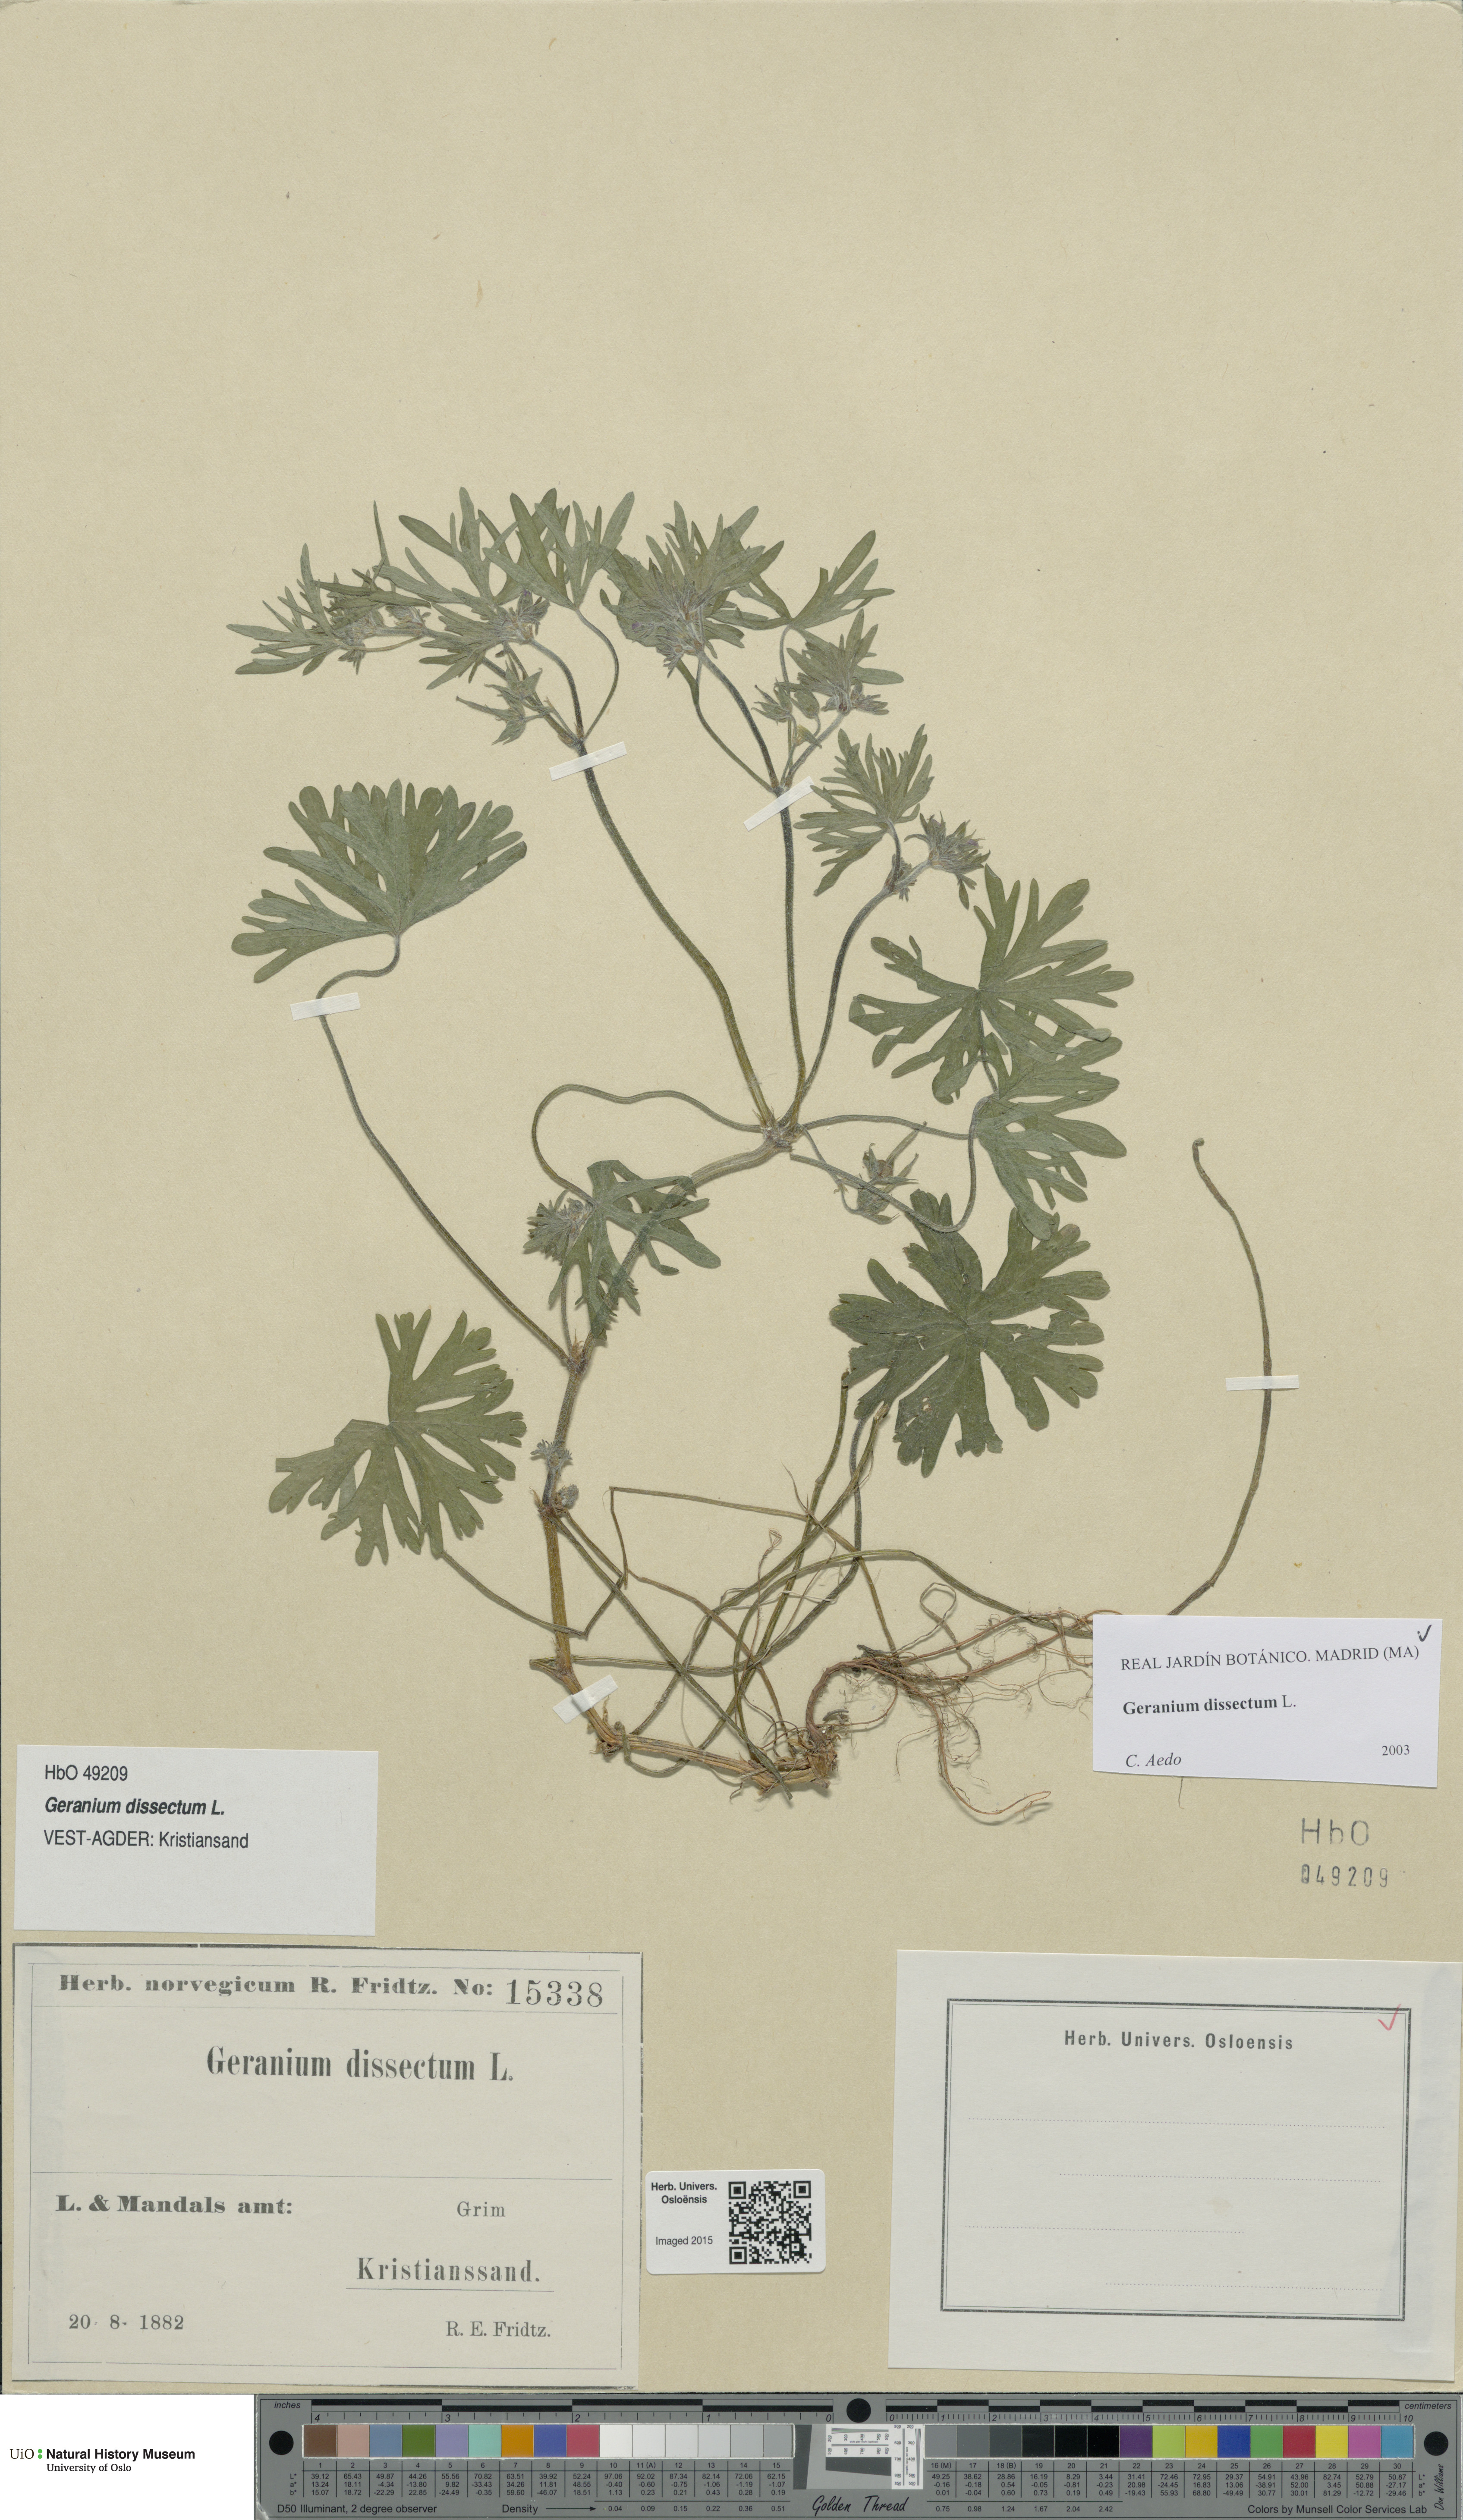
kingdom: Plantae
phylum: Tracheophyta
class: Magnoliopsida
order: Geraniales
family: Geraniaceae
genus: Geranium
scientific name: Geranium dissectum
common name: Cut-leaved crane's-bill
